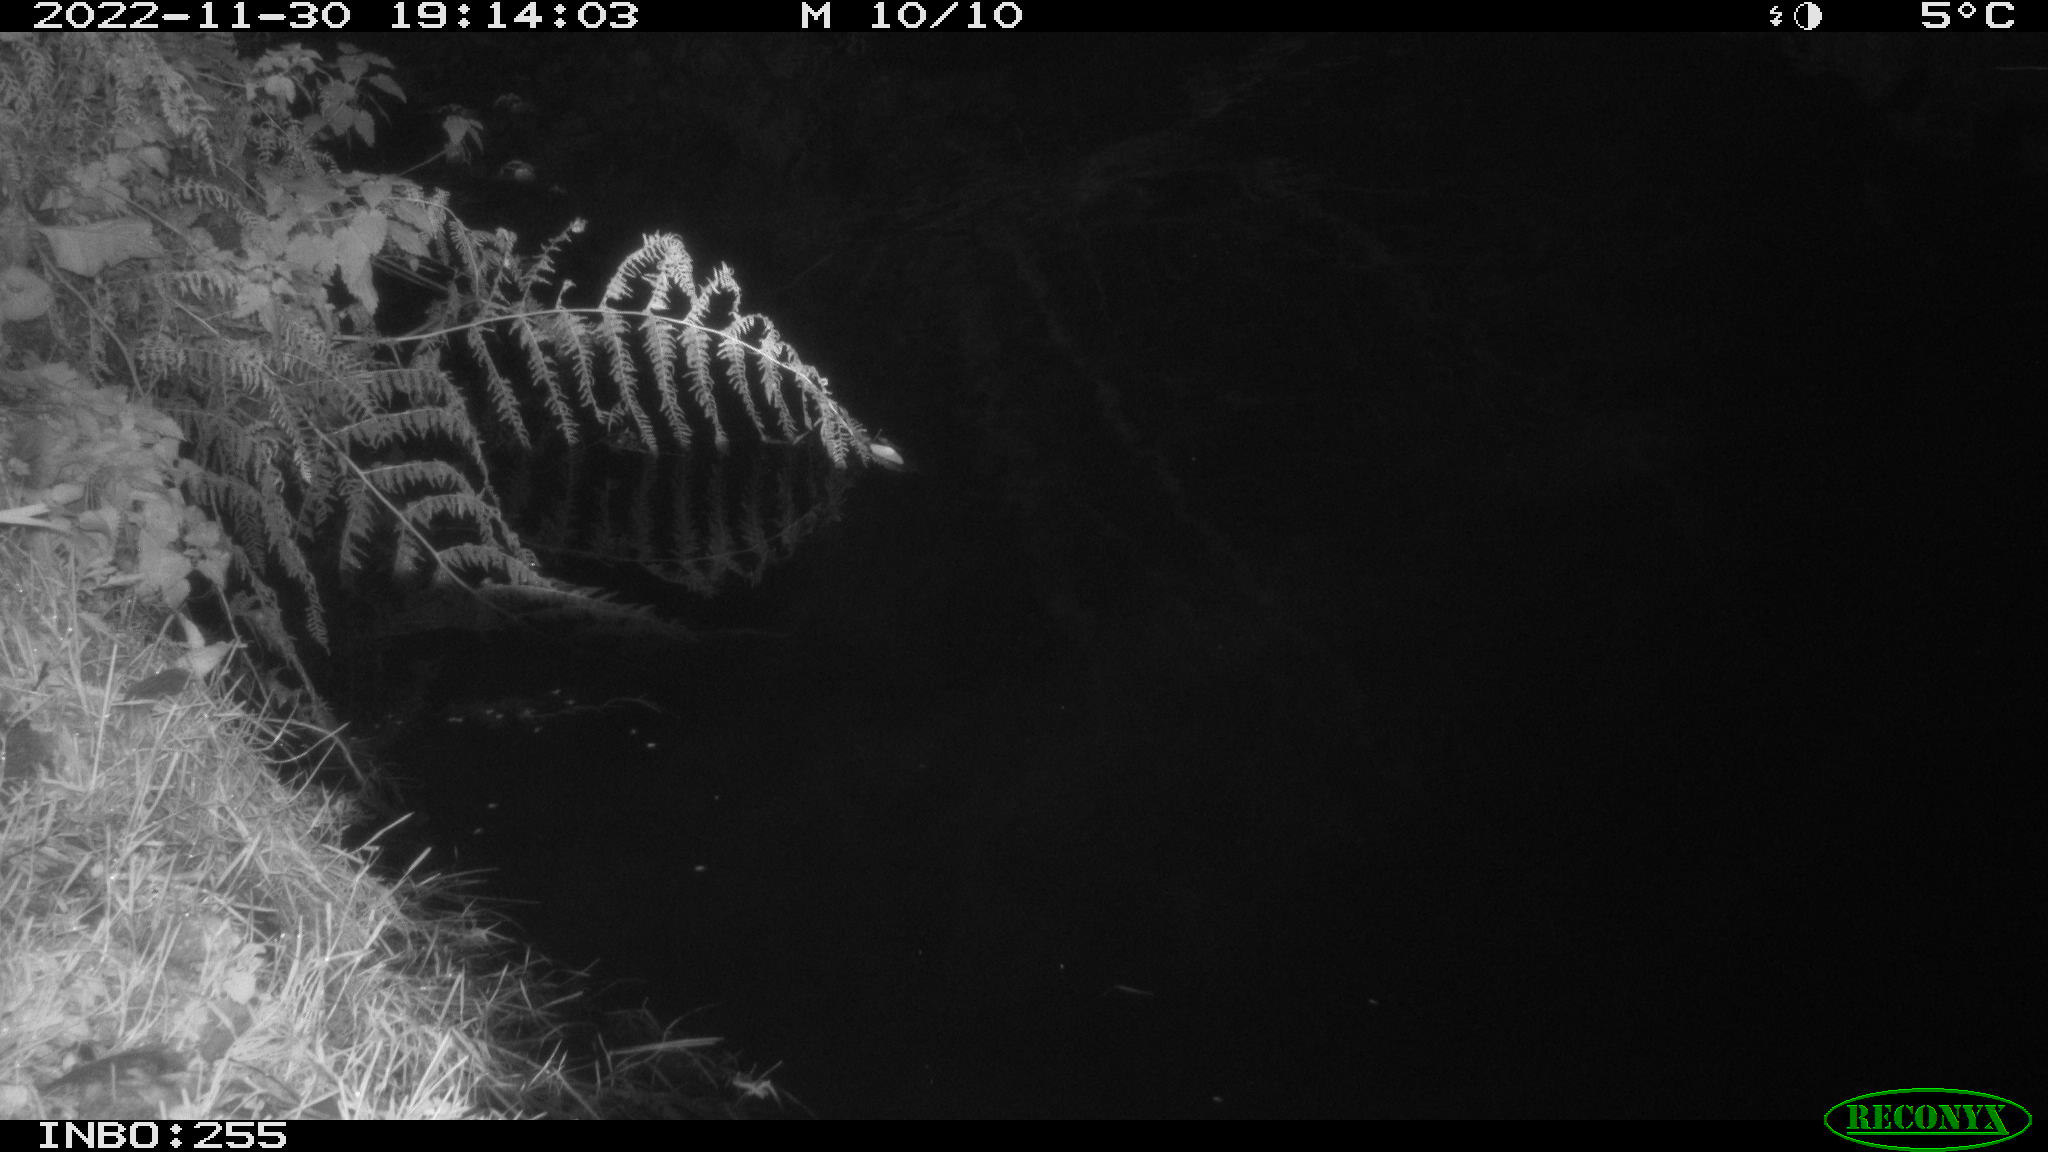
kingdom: Animalia
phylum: Chordata
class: Mammalia
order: Rodentia
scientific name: Rodentia
